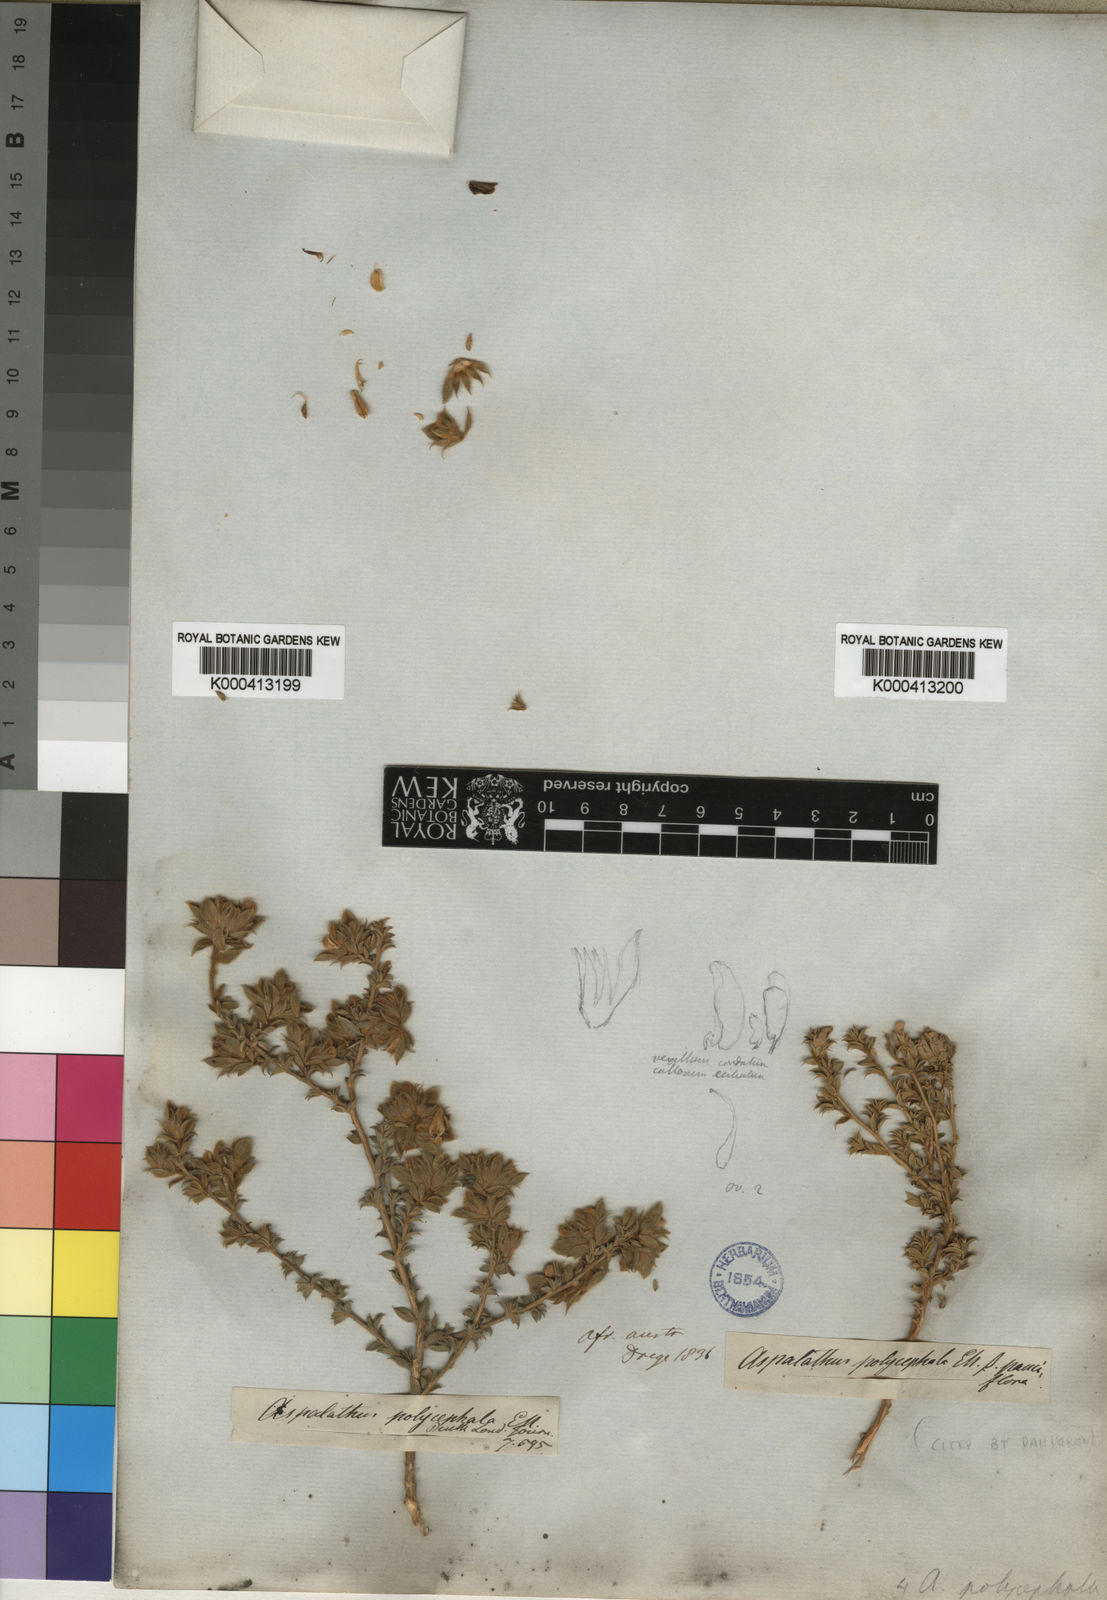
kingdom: Plantae
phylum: Tracheophyta
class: Magnoliopsida
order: Fabales
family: Fabaceae
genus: Aspalathus
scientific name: Aspalathus polycephala
